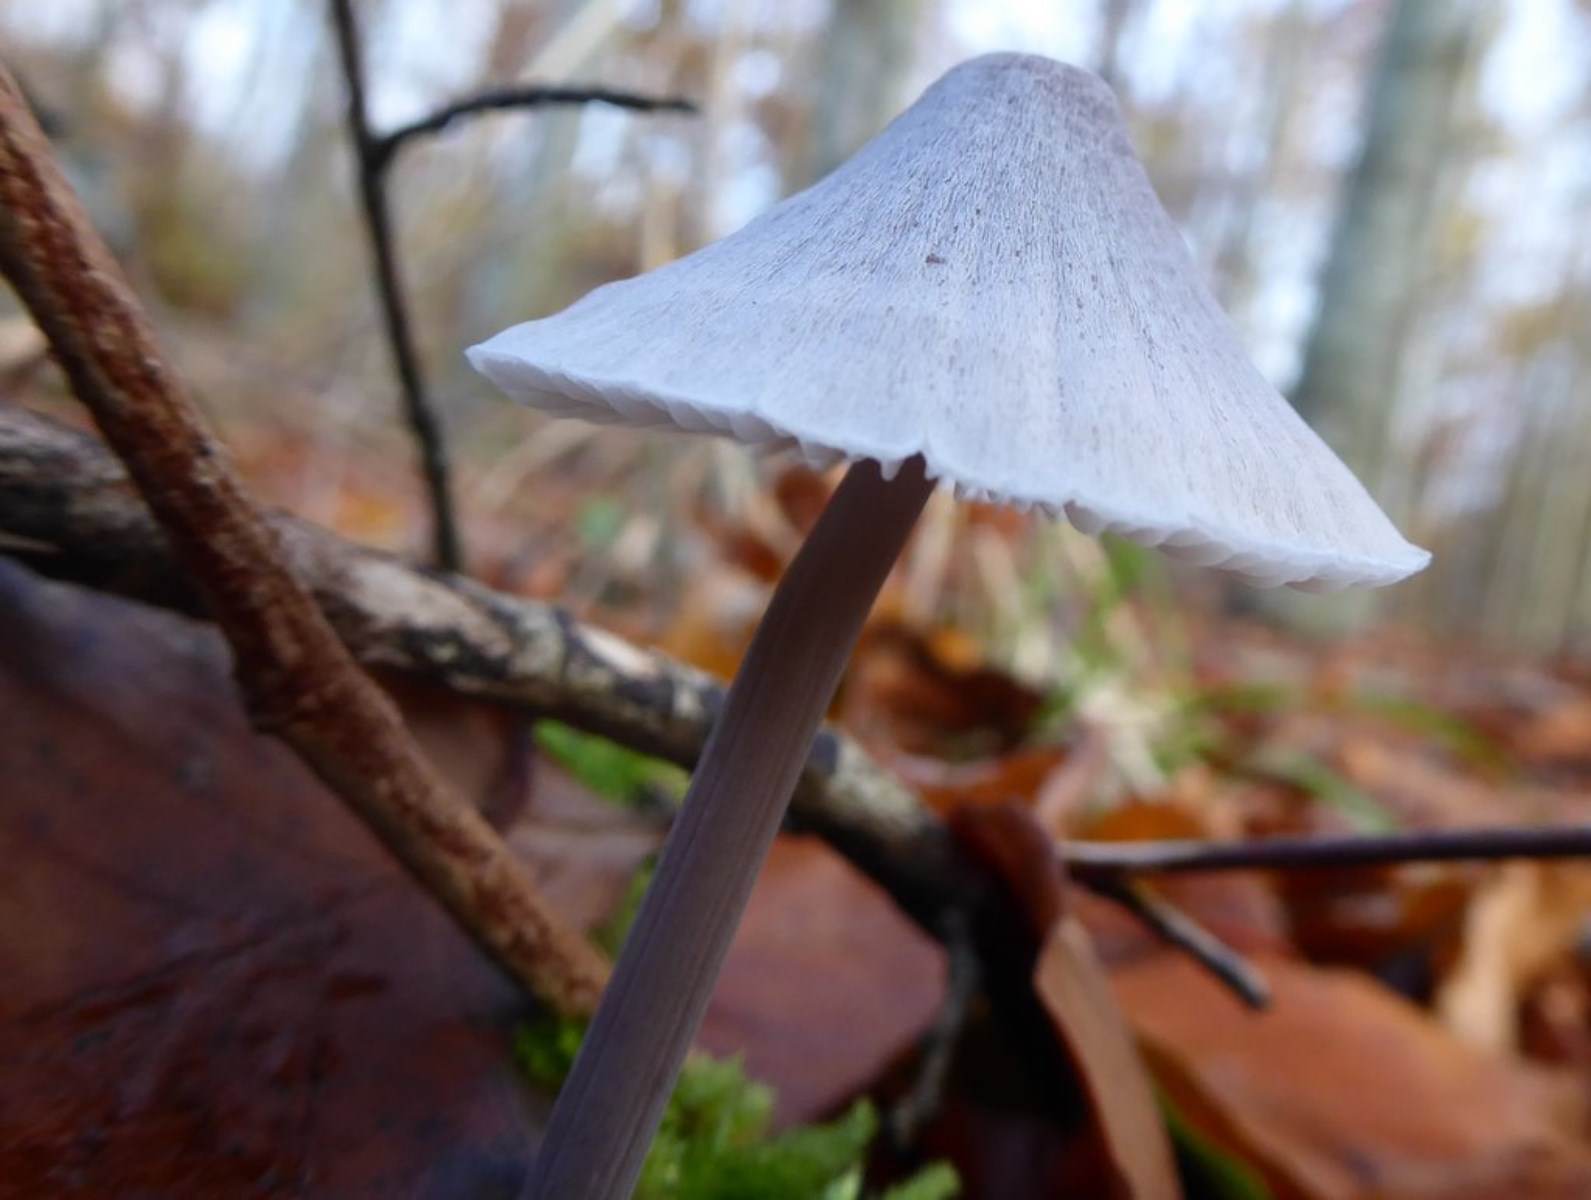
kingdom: Fungi
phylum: Basidiomycota
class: Agaricomycetes
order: Agaricales
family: Mycenaceae
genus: Mycena
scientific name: Mycena
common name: huesvamp
